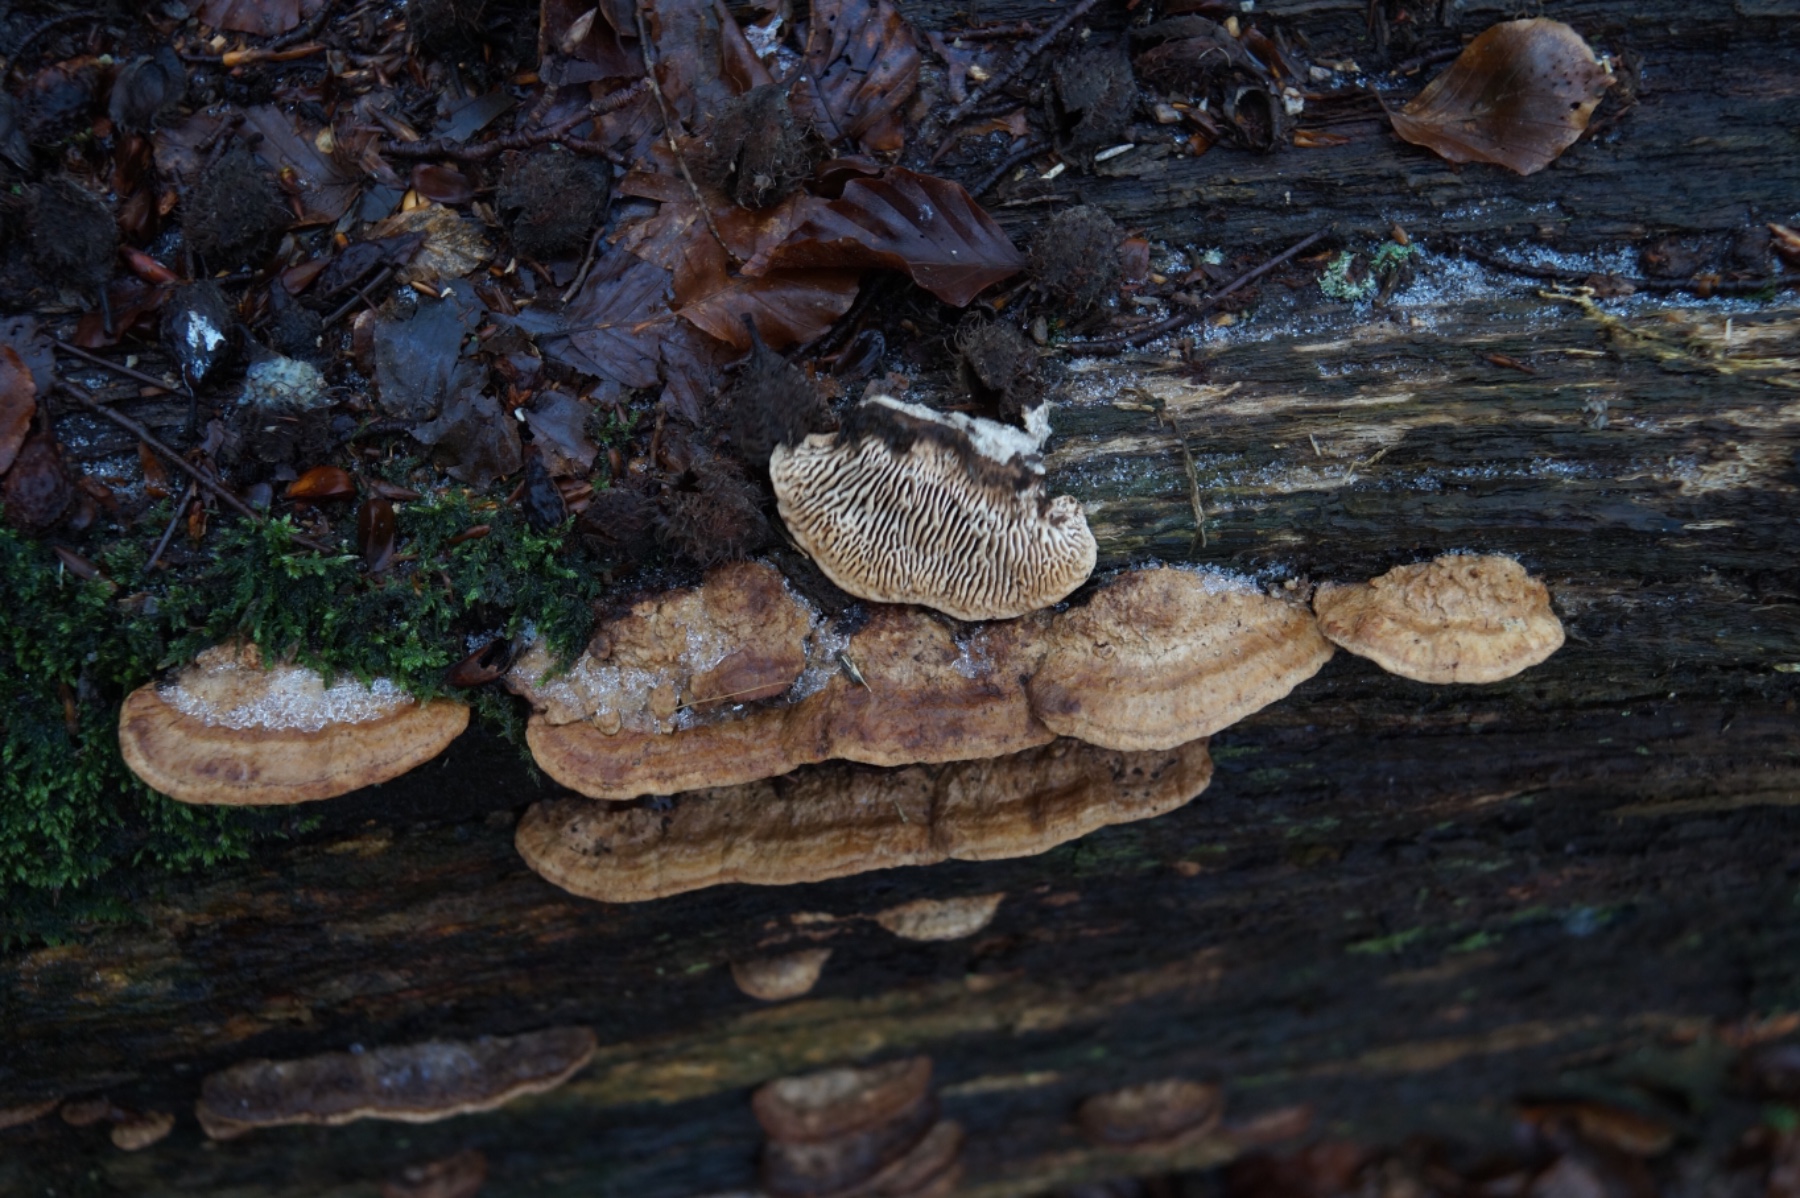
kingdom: Fungi
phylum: Basidiomycota
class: Agaricomycetes
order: Polyporales
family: Fomitopsidaceae
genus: Daedalea
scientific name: Daedalea quercina
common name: ege-labyrintsvamp
